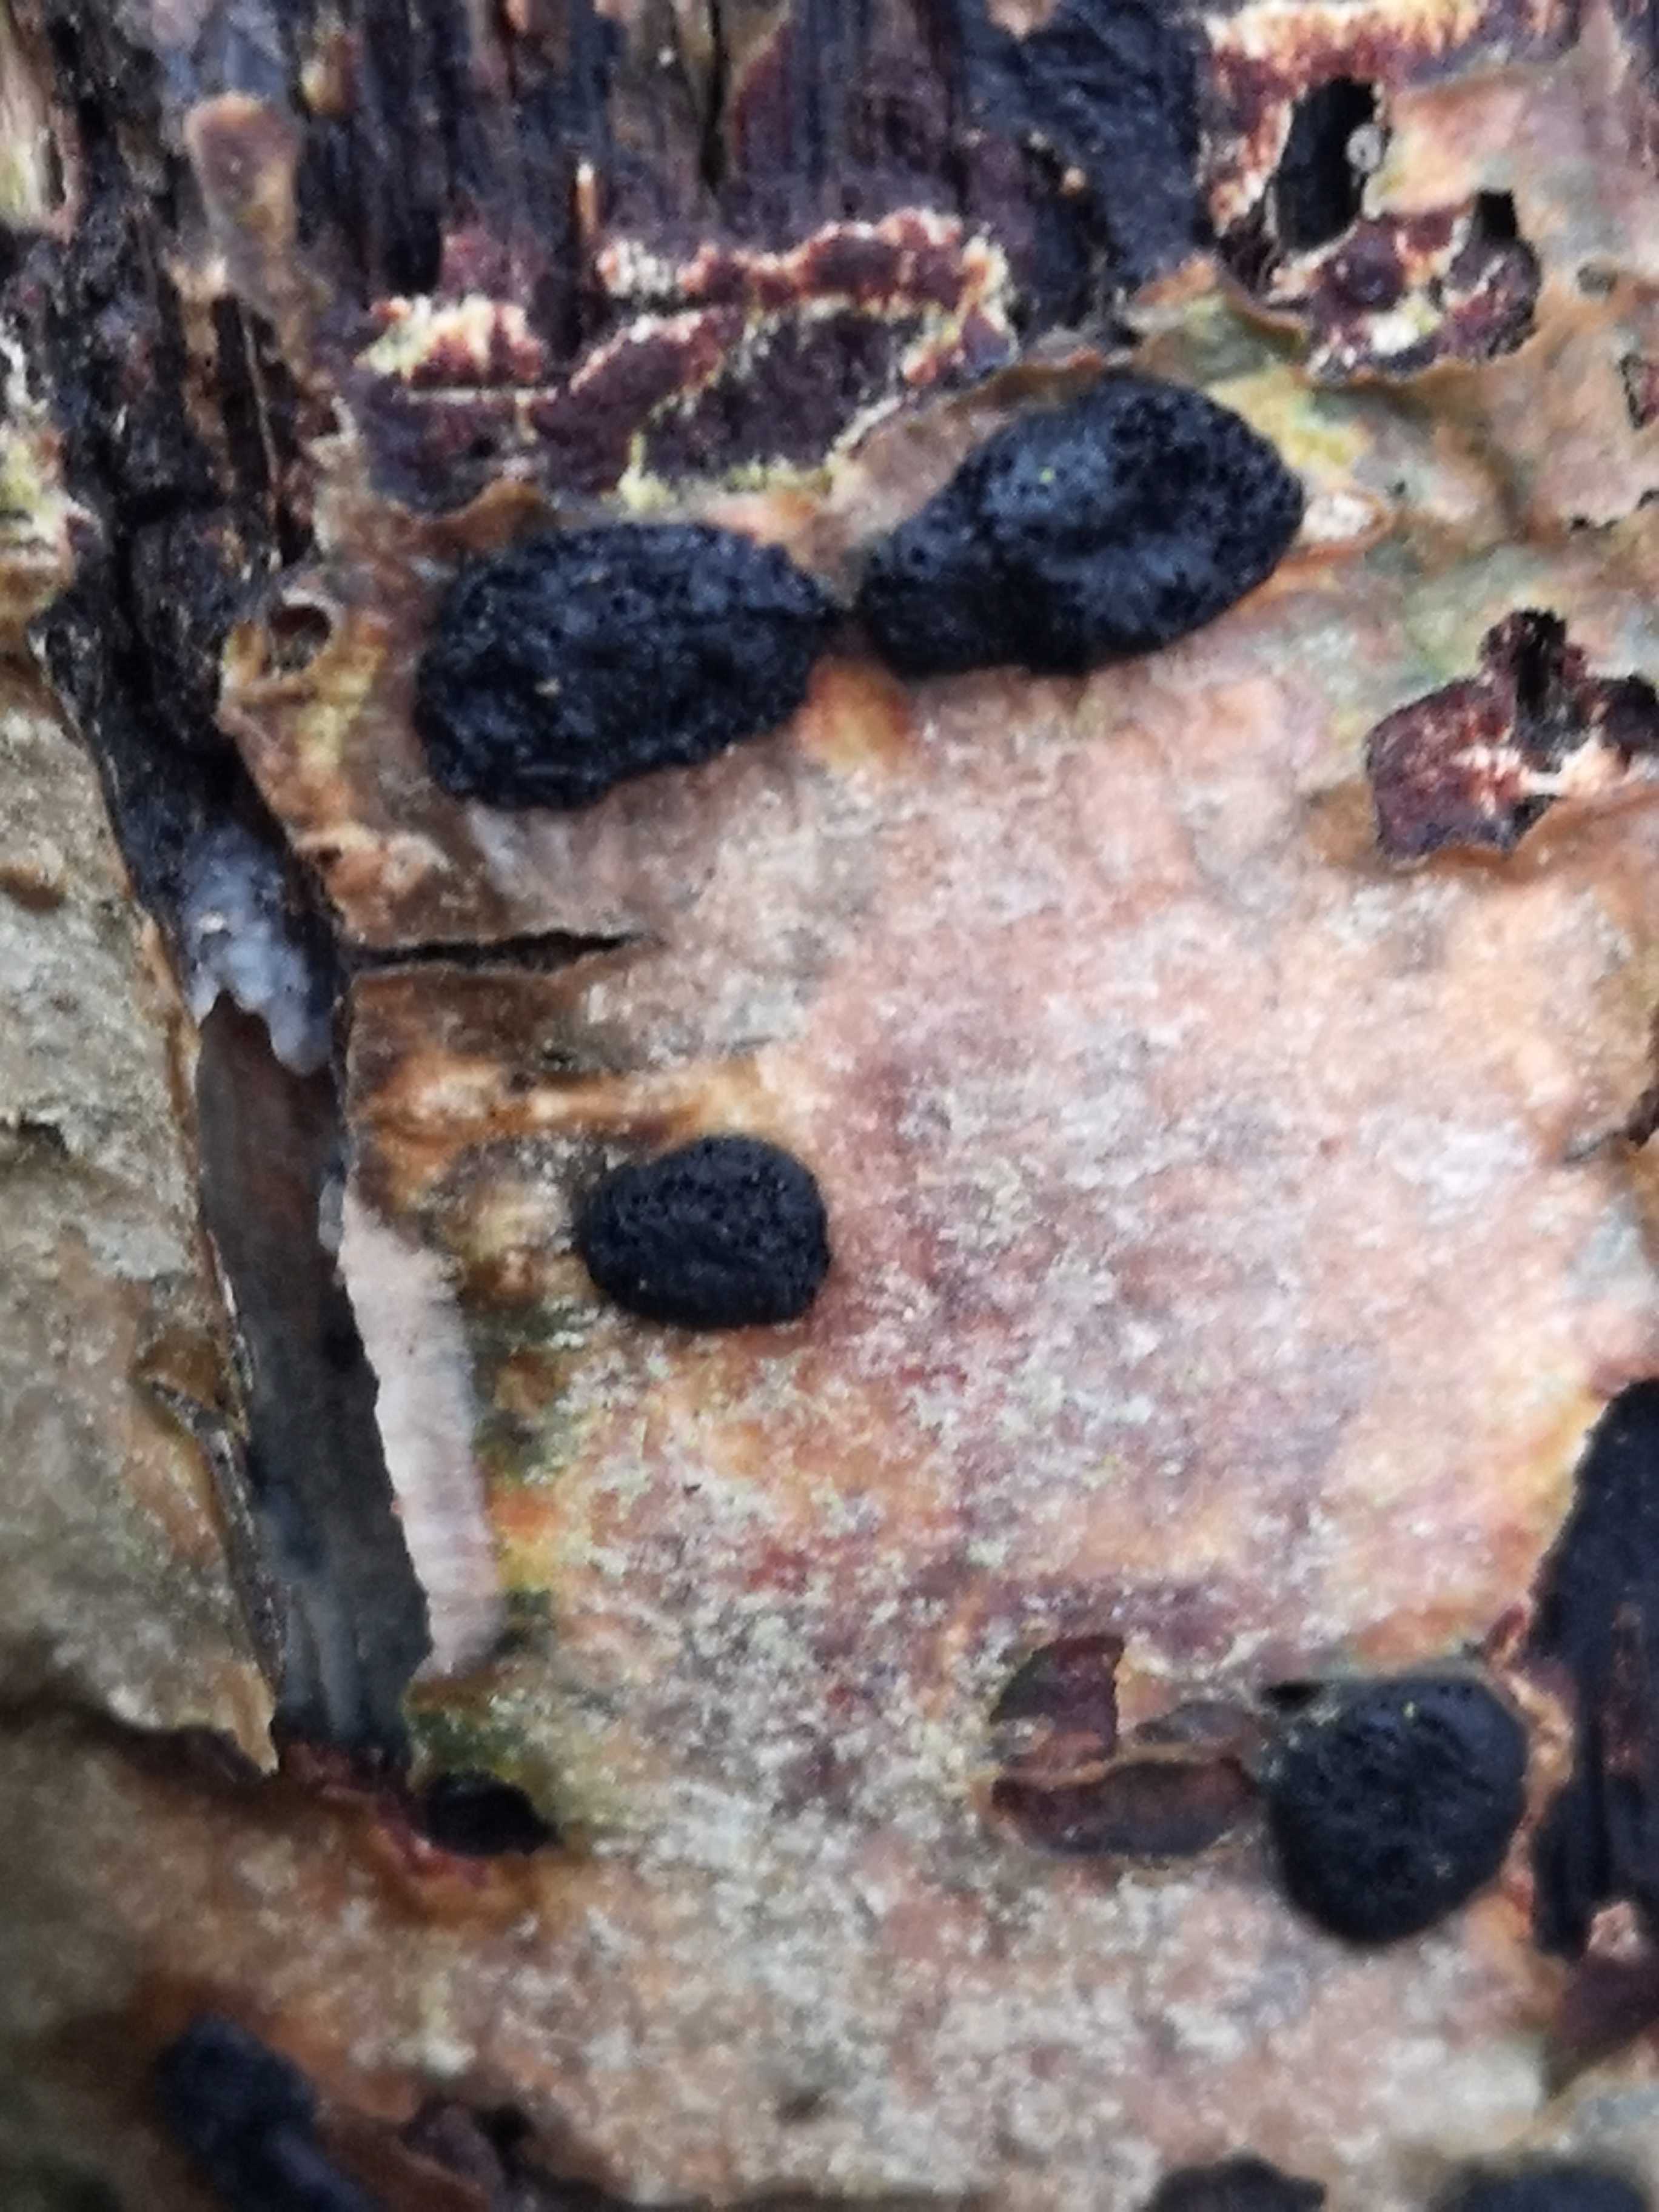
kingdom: Fungi
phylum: Ascomycota
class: Sordariomycetes
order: Xylariales
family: Hypoxylaceae
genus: Hypoxylon
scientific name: Hypoxylon fuscum
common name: kegleformet kulbær
